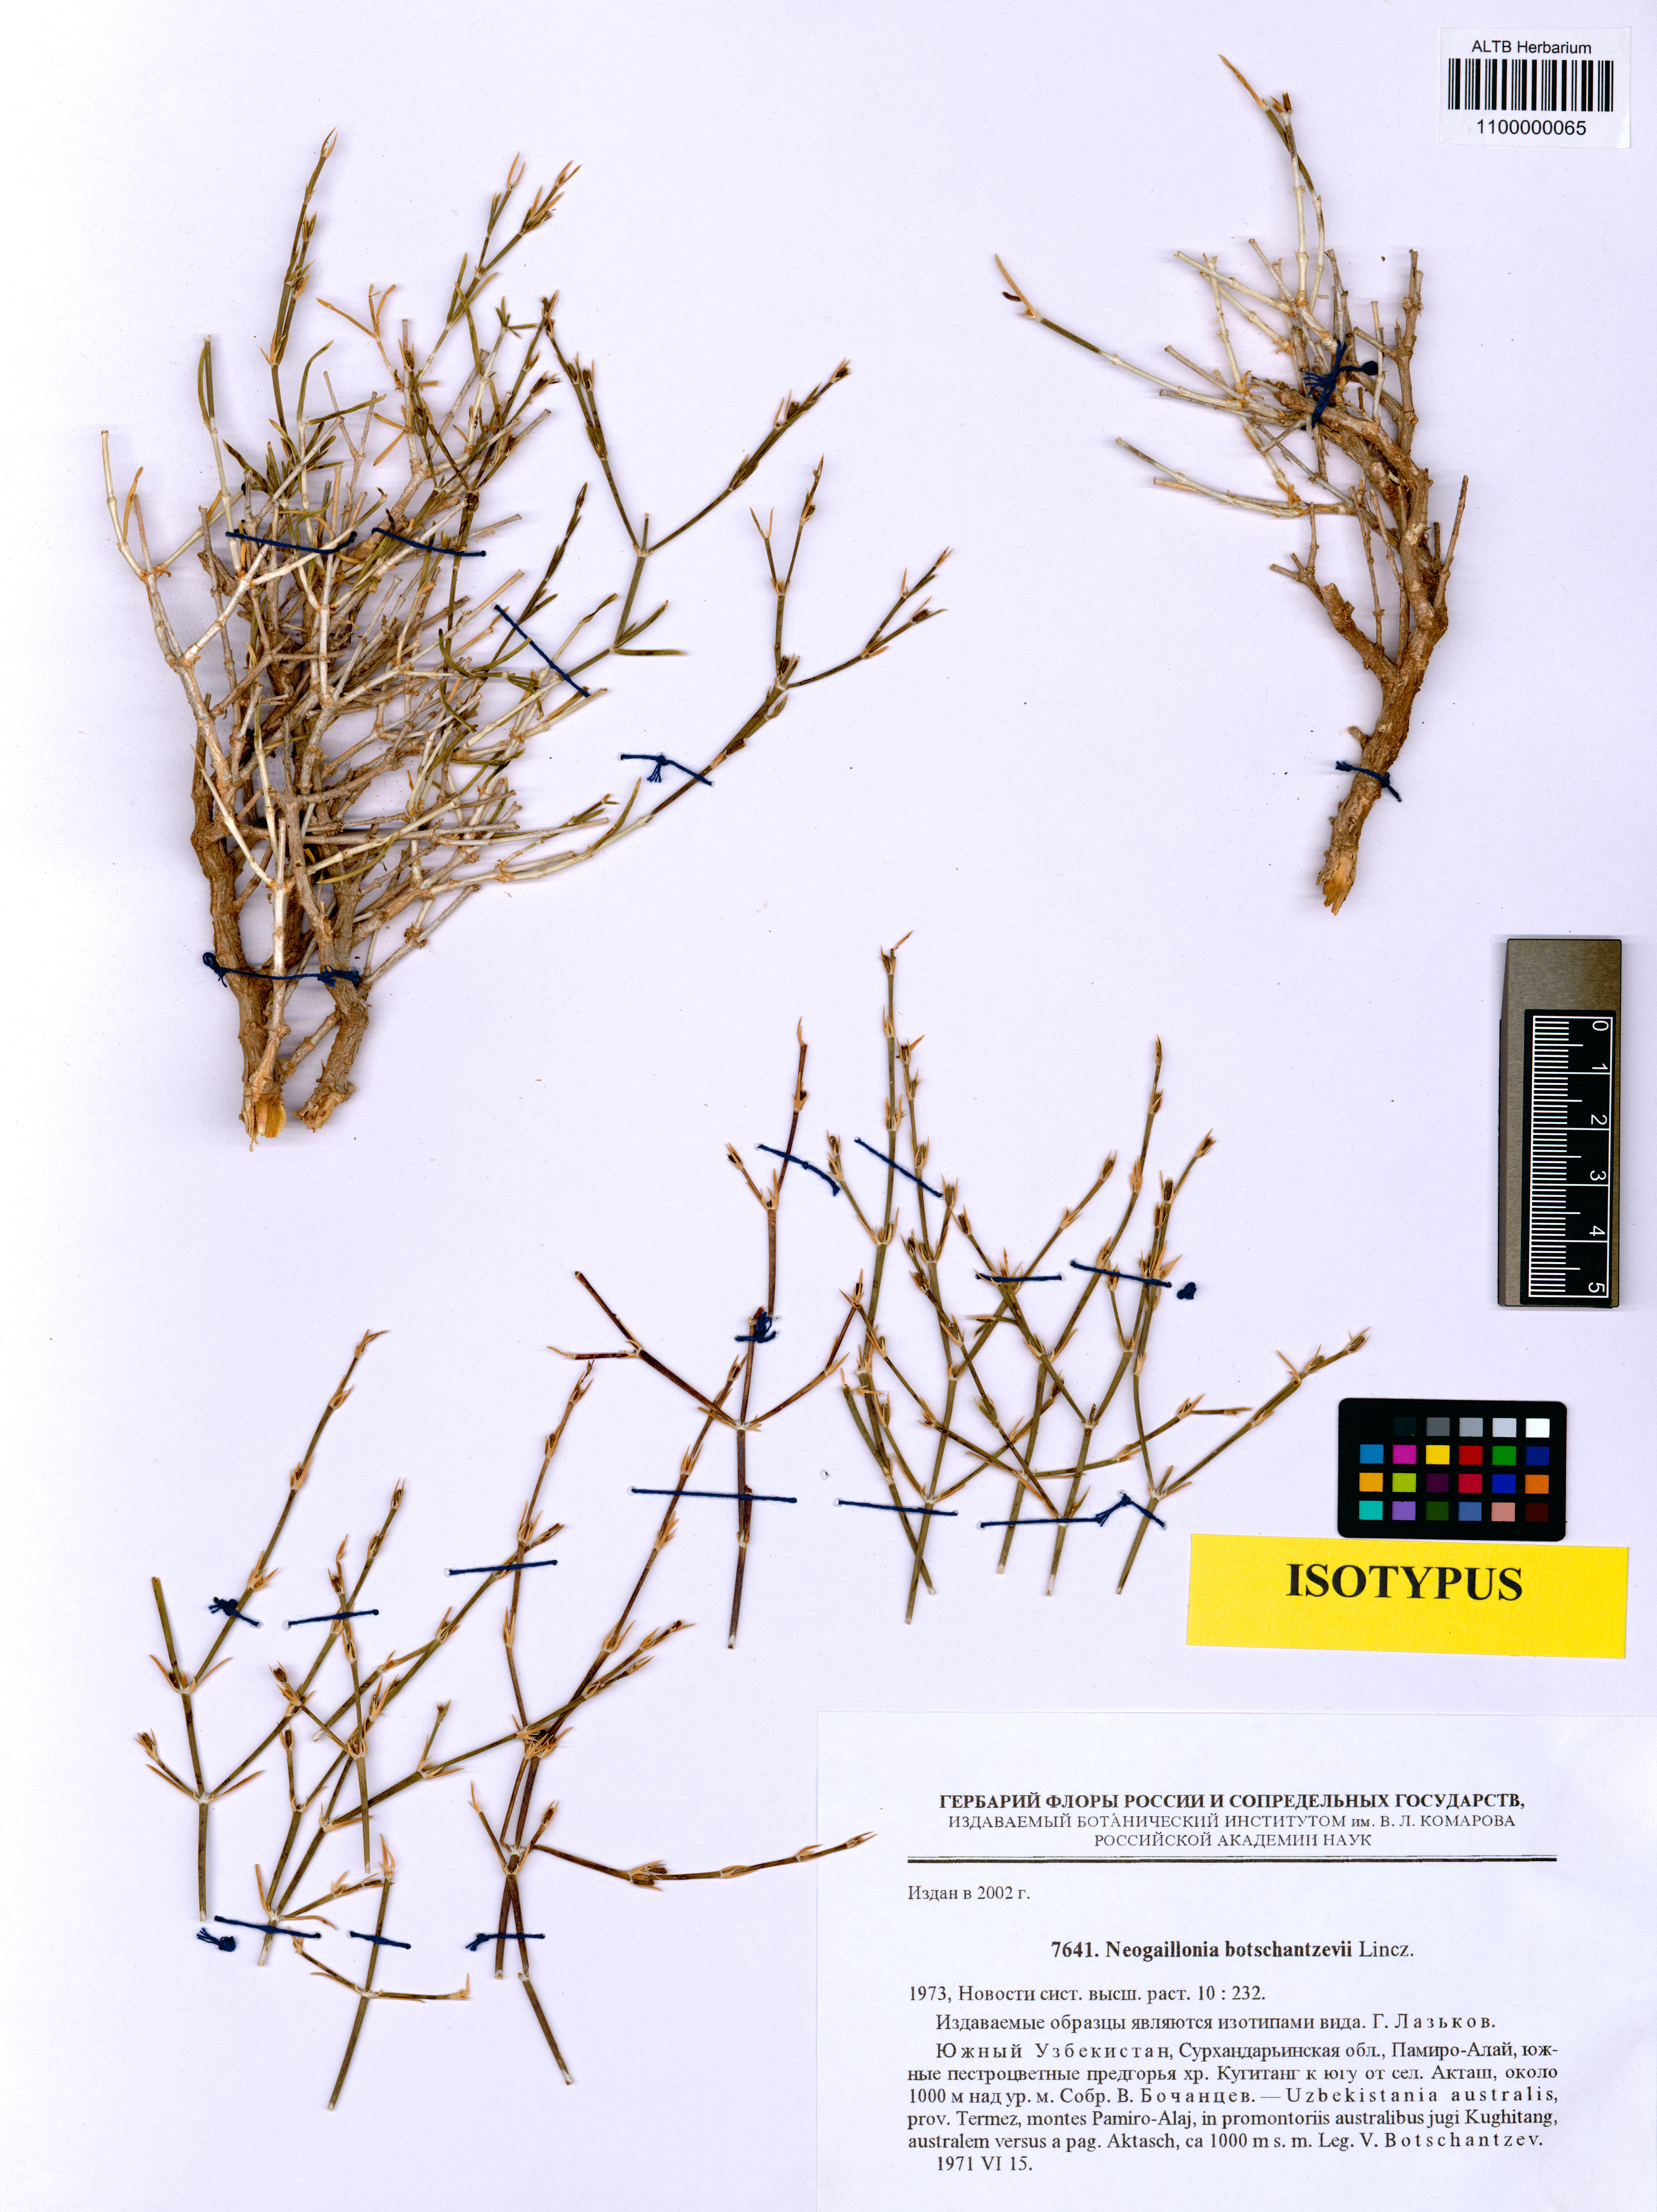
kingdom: Plantae
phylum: Tracheophyta
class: Magnoliopsida
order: Gentianales
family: Rubiaceae
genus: Plocama
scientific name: Plocama botschantzevii
